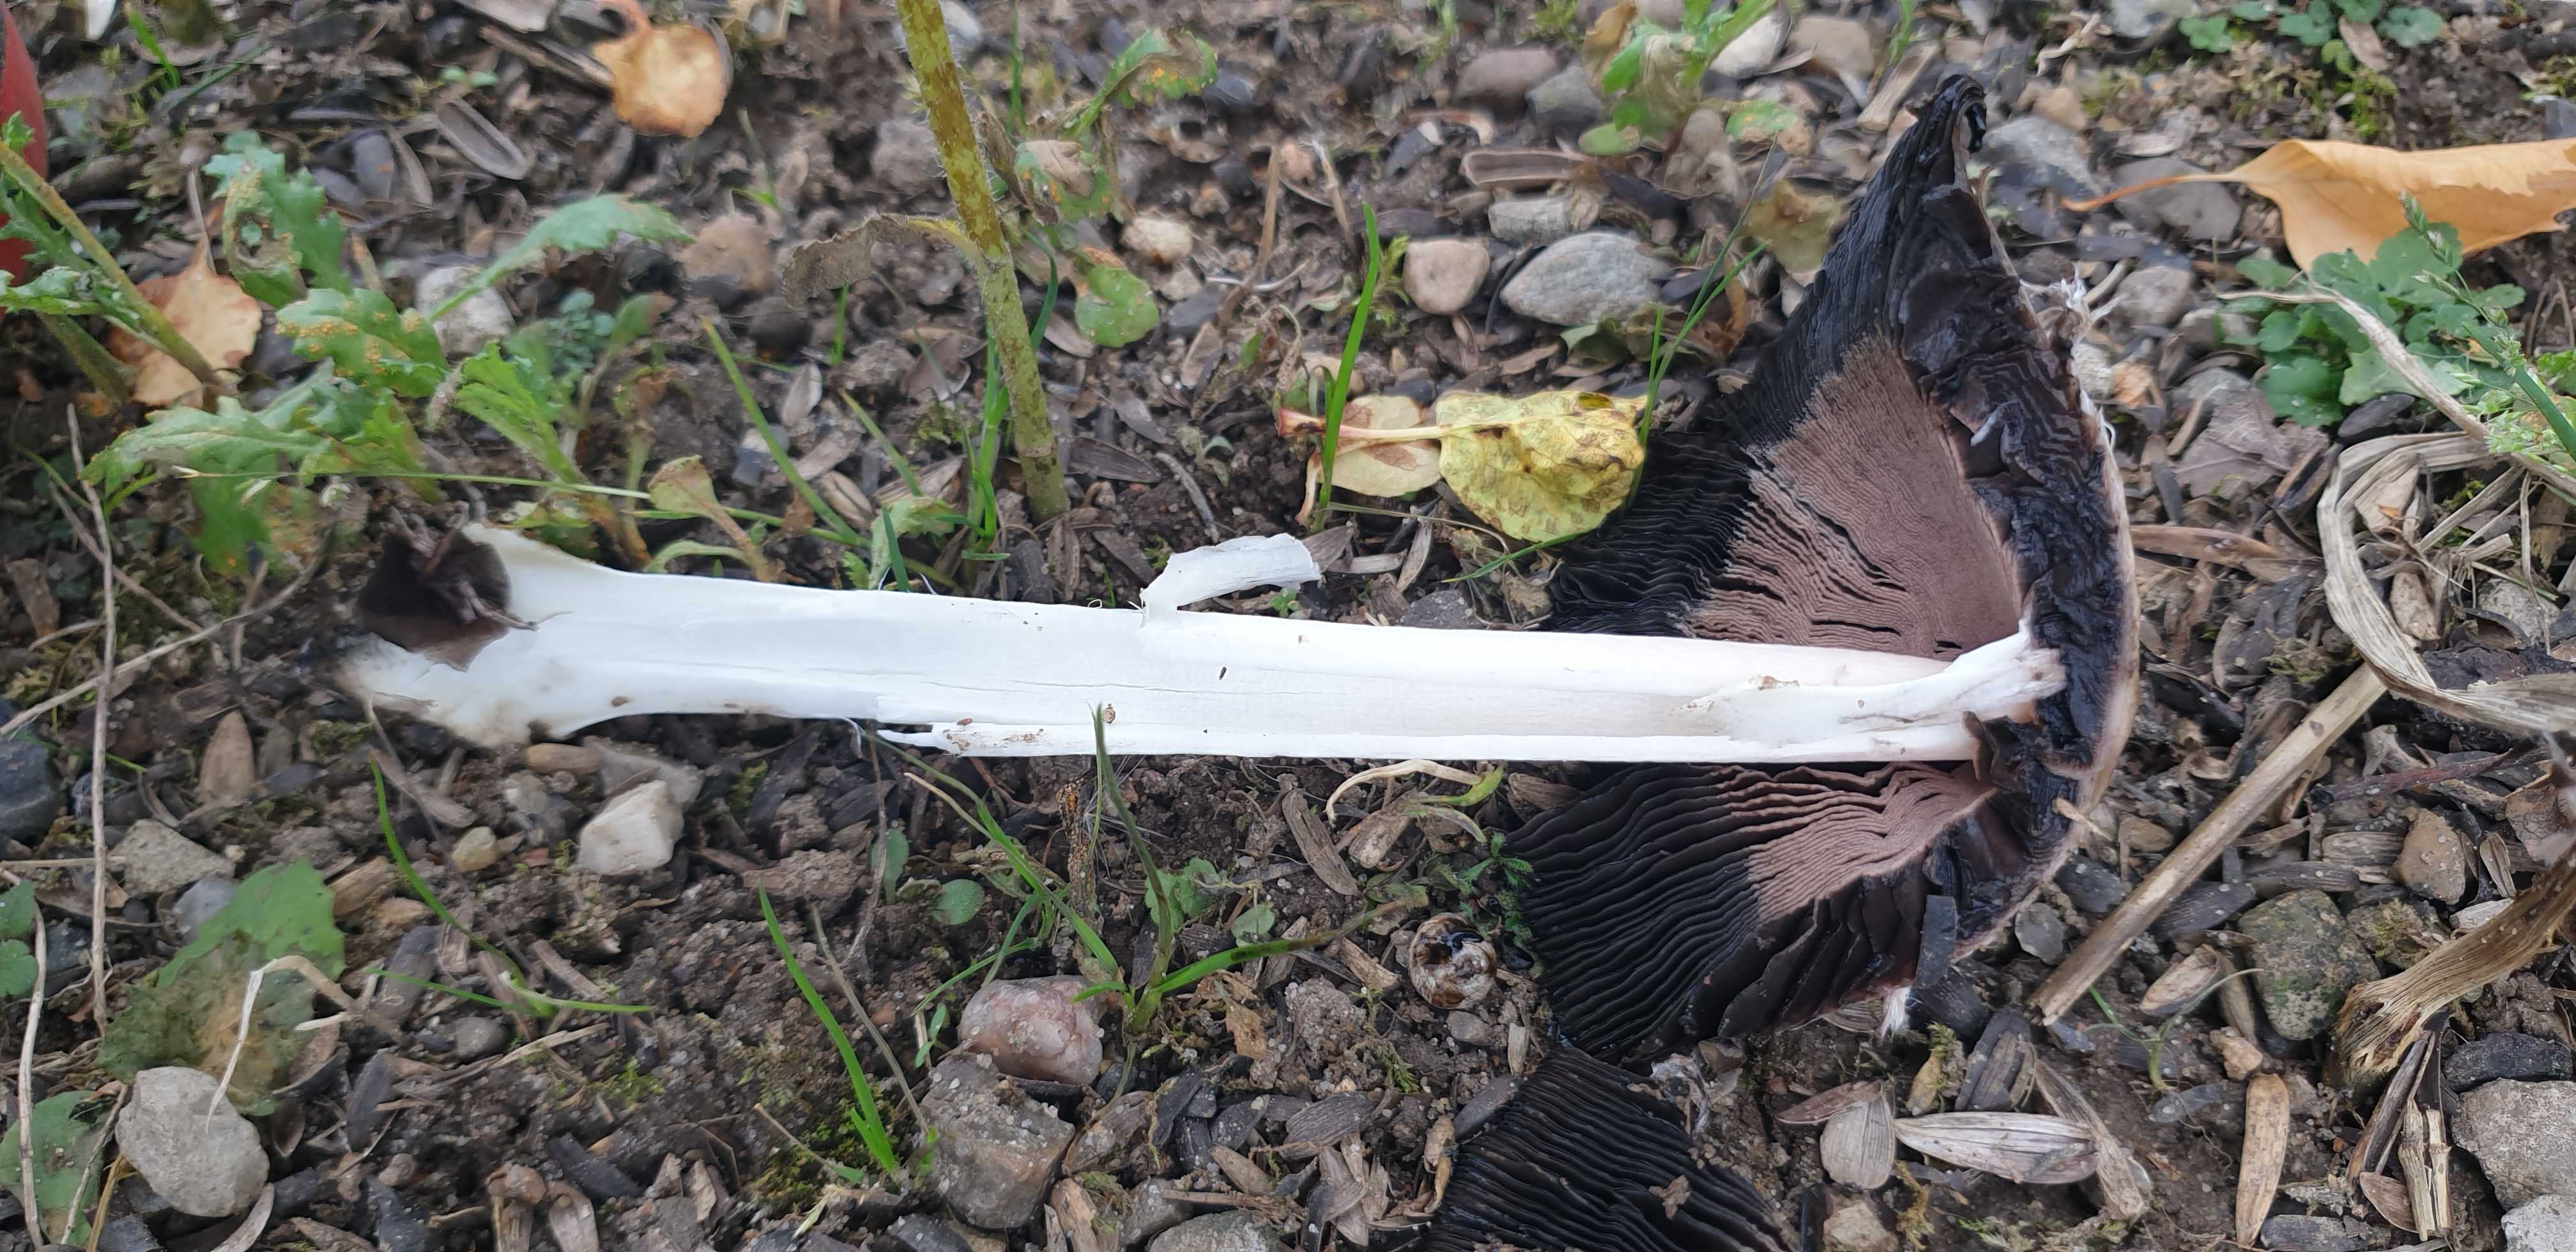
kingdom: Fungi
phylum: Basidiomycota
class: Agaricomycetes
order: Agaricales
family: Agaricaceae
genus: Coprinus
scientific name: Coprinus comatus
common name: stor parykhat
